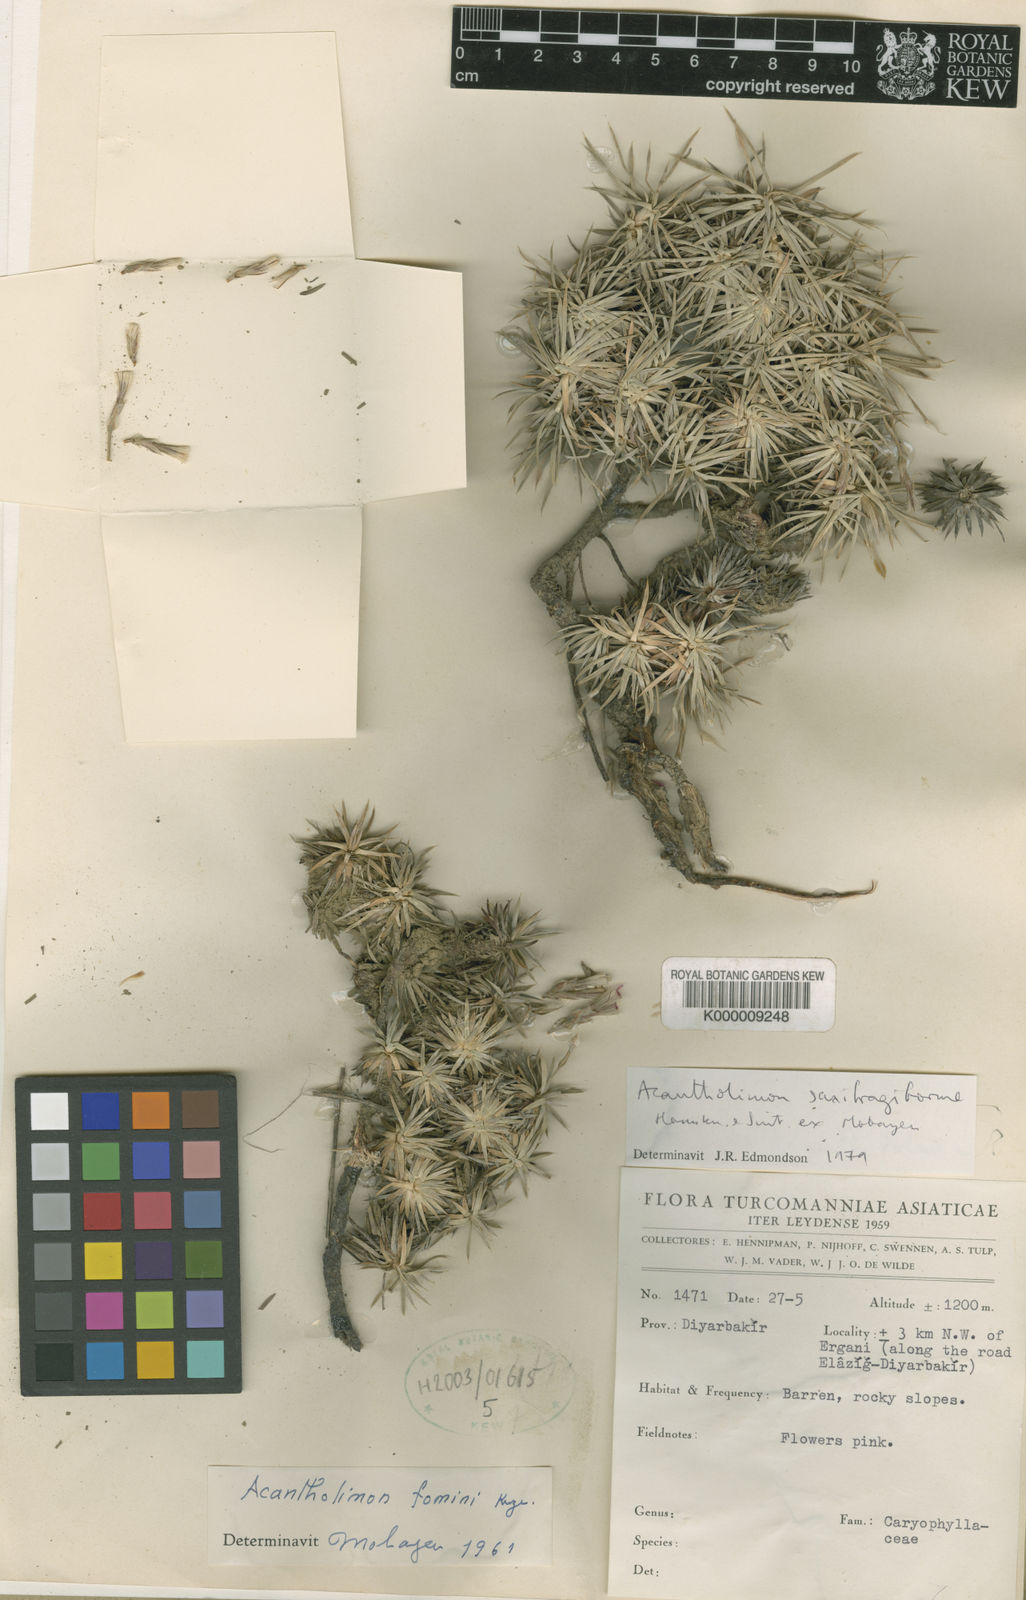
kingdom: Plantae
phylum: Tracheophyta
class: Magnoliopsida
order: Caryophyllales
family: Plumbaginaceae
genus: Acantholimon
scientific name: Acantholimon
